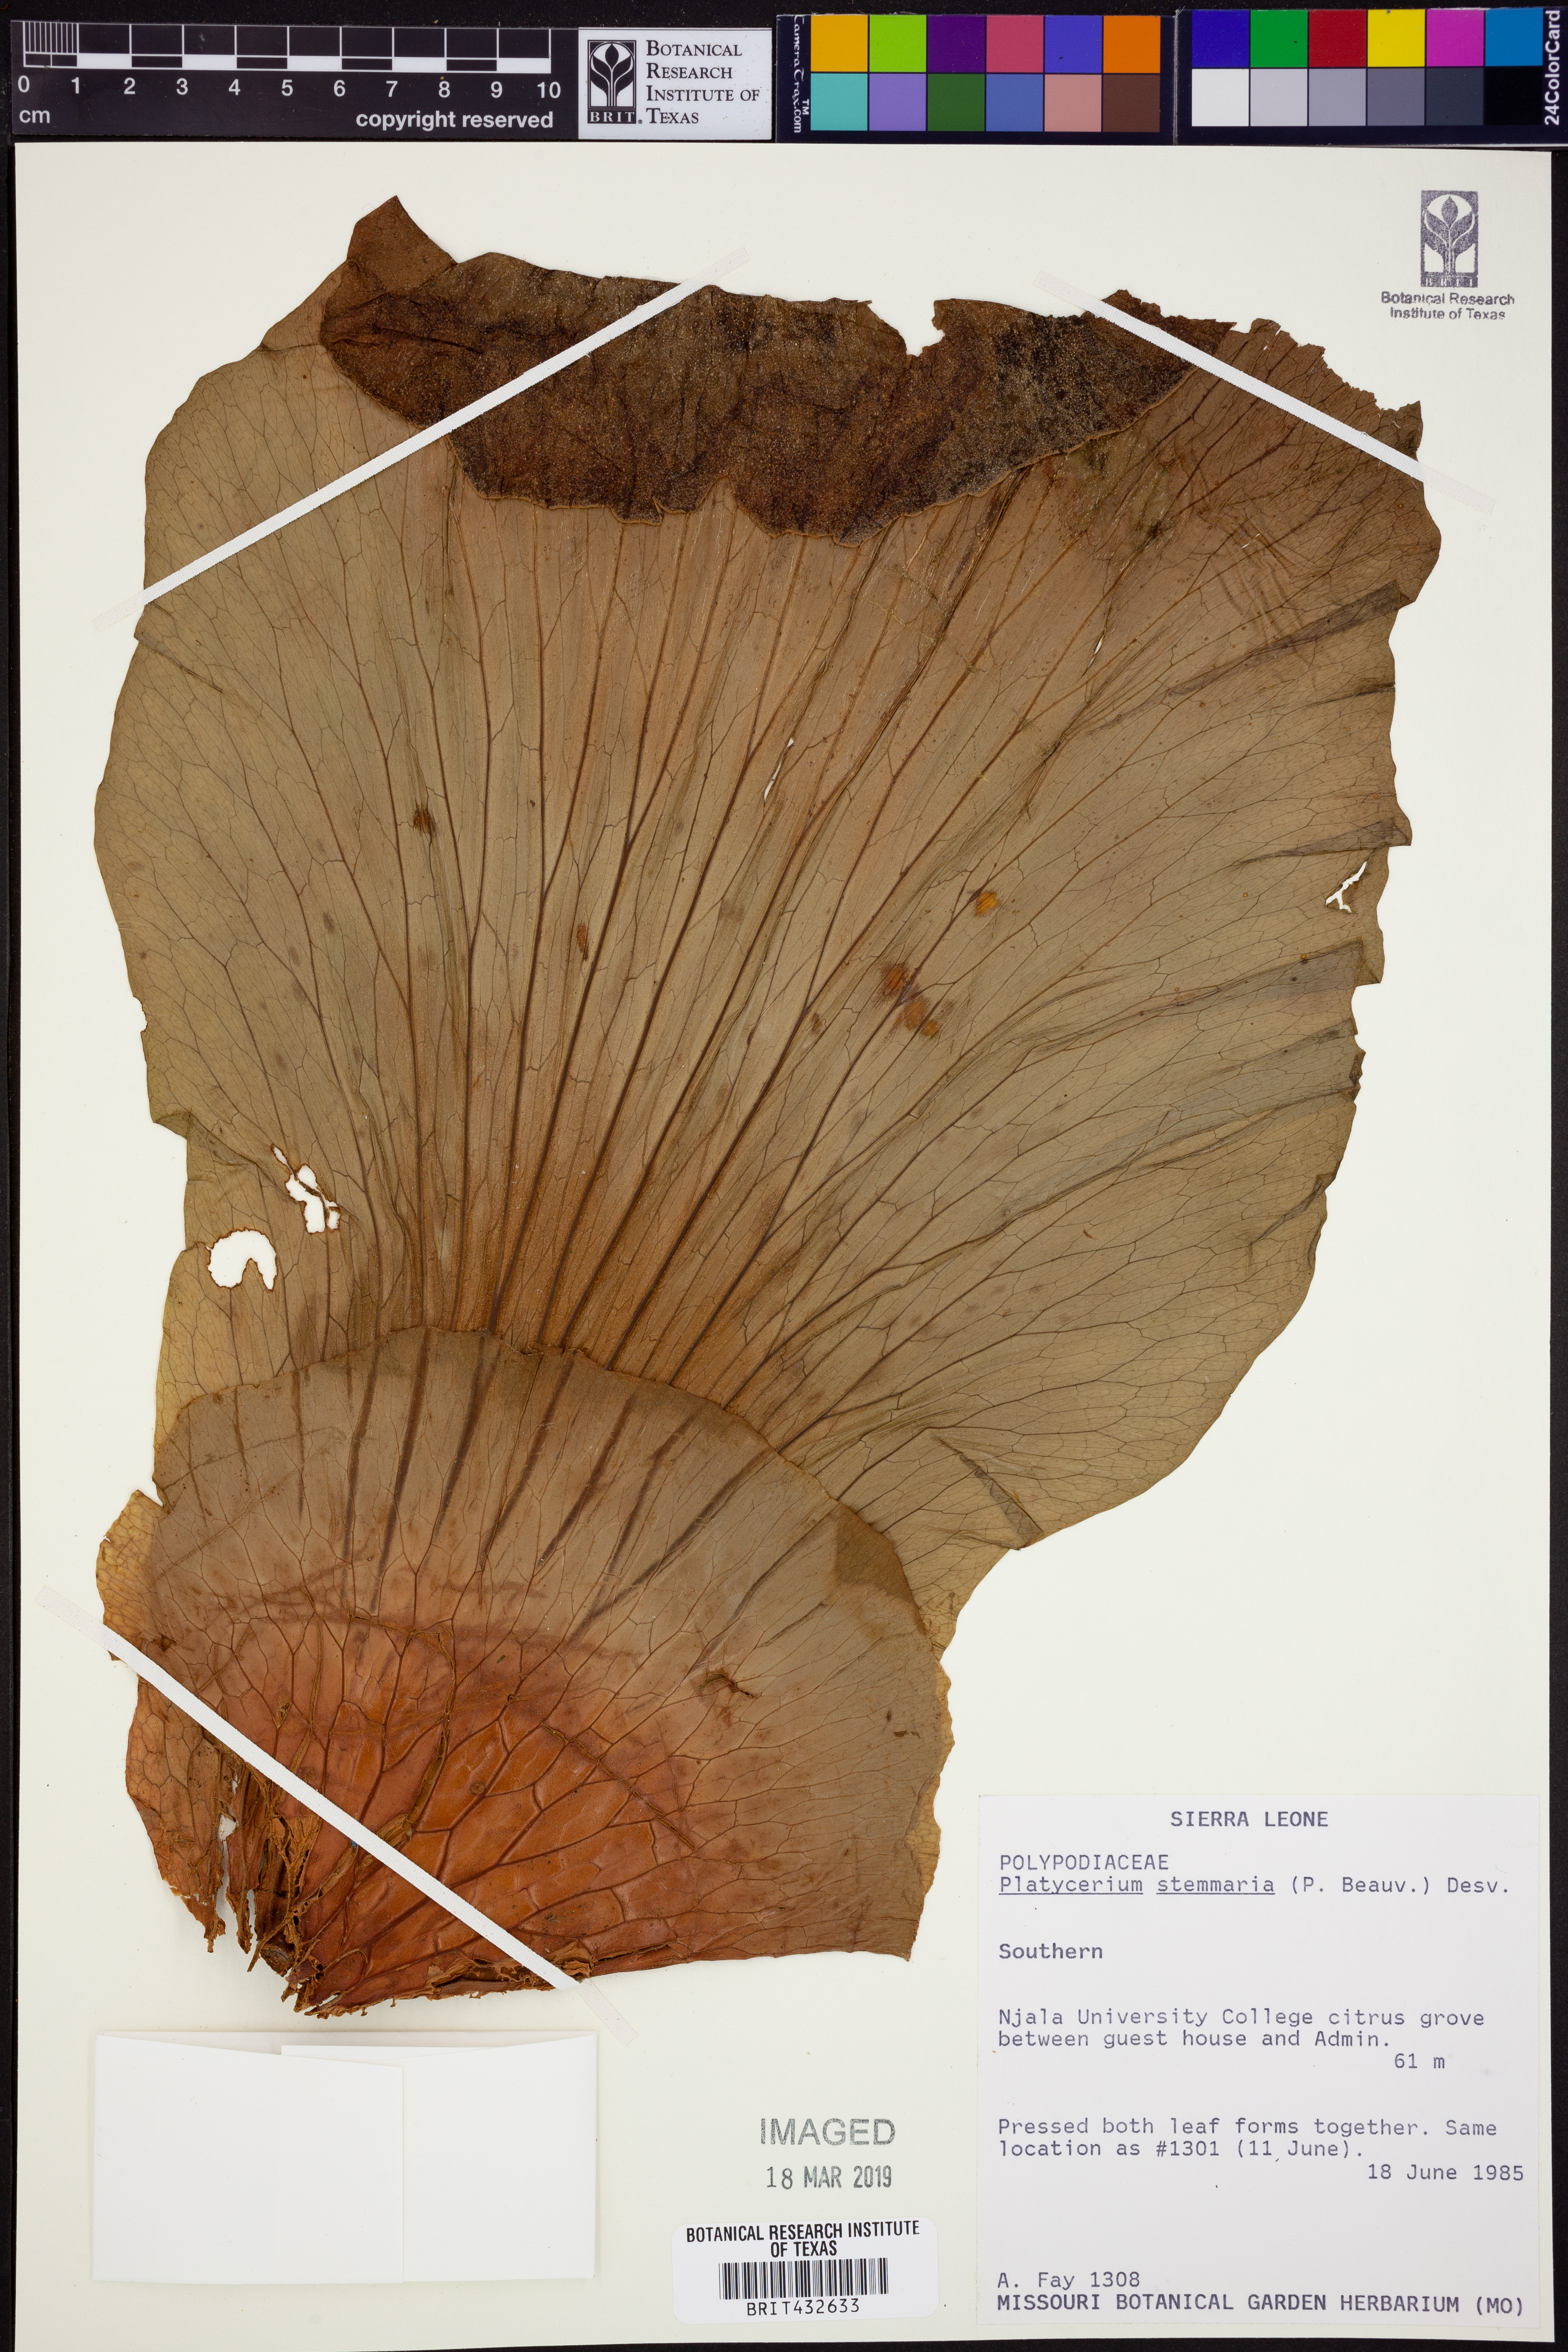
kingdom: Plantae
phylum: Tracheophyta
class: Polypodiopsida
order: Polypodiales
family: Polypodiaceae
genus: Platycerium
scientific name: Platycerium stemaria
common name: Triangular staghorn fern
